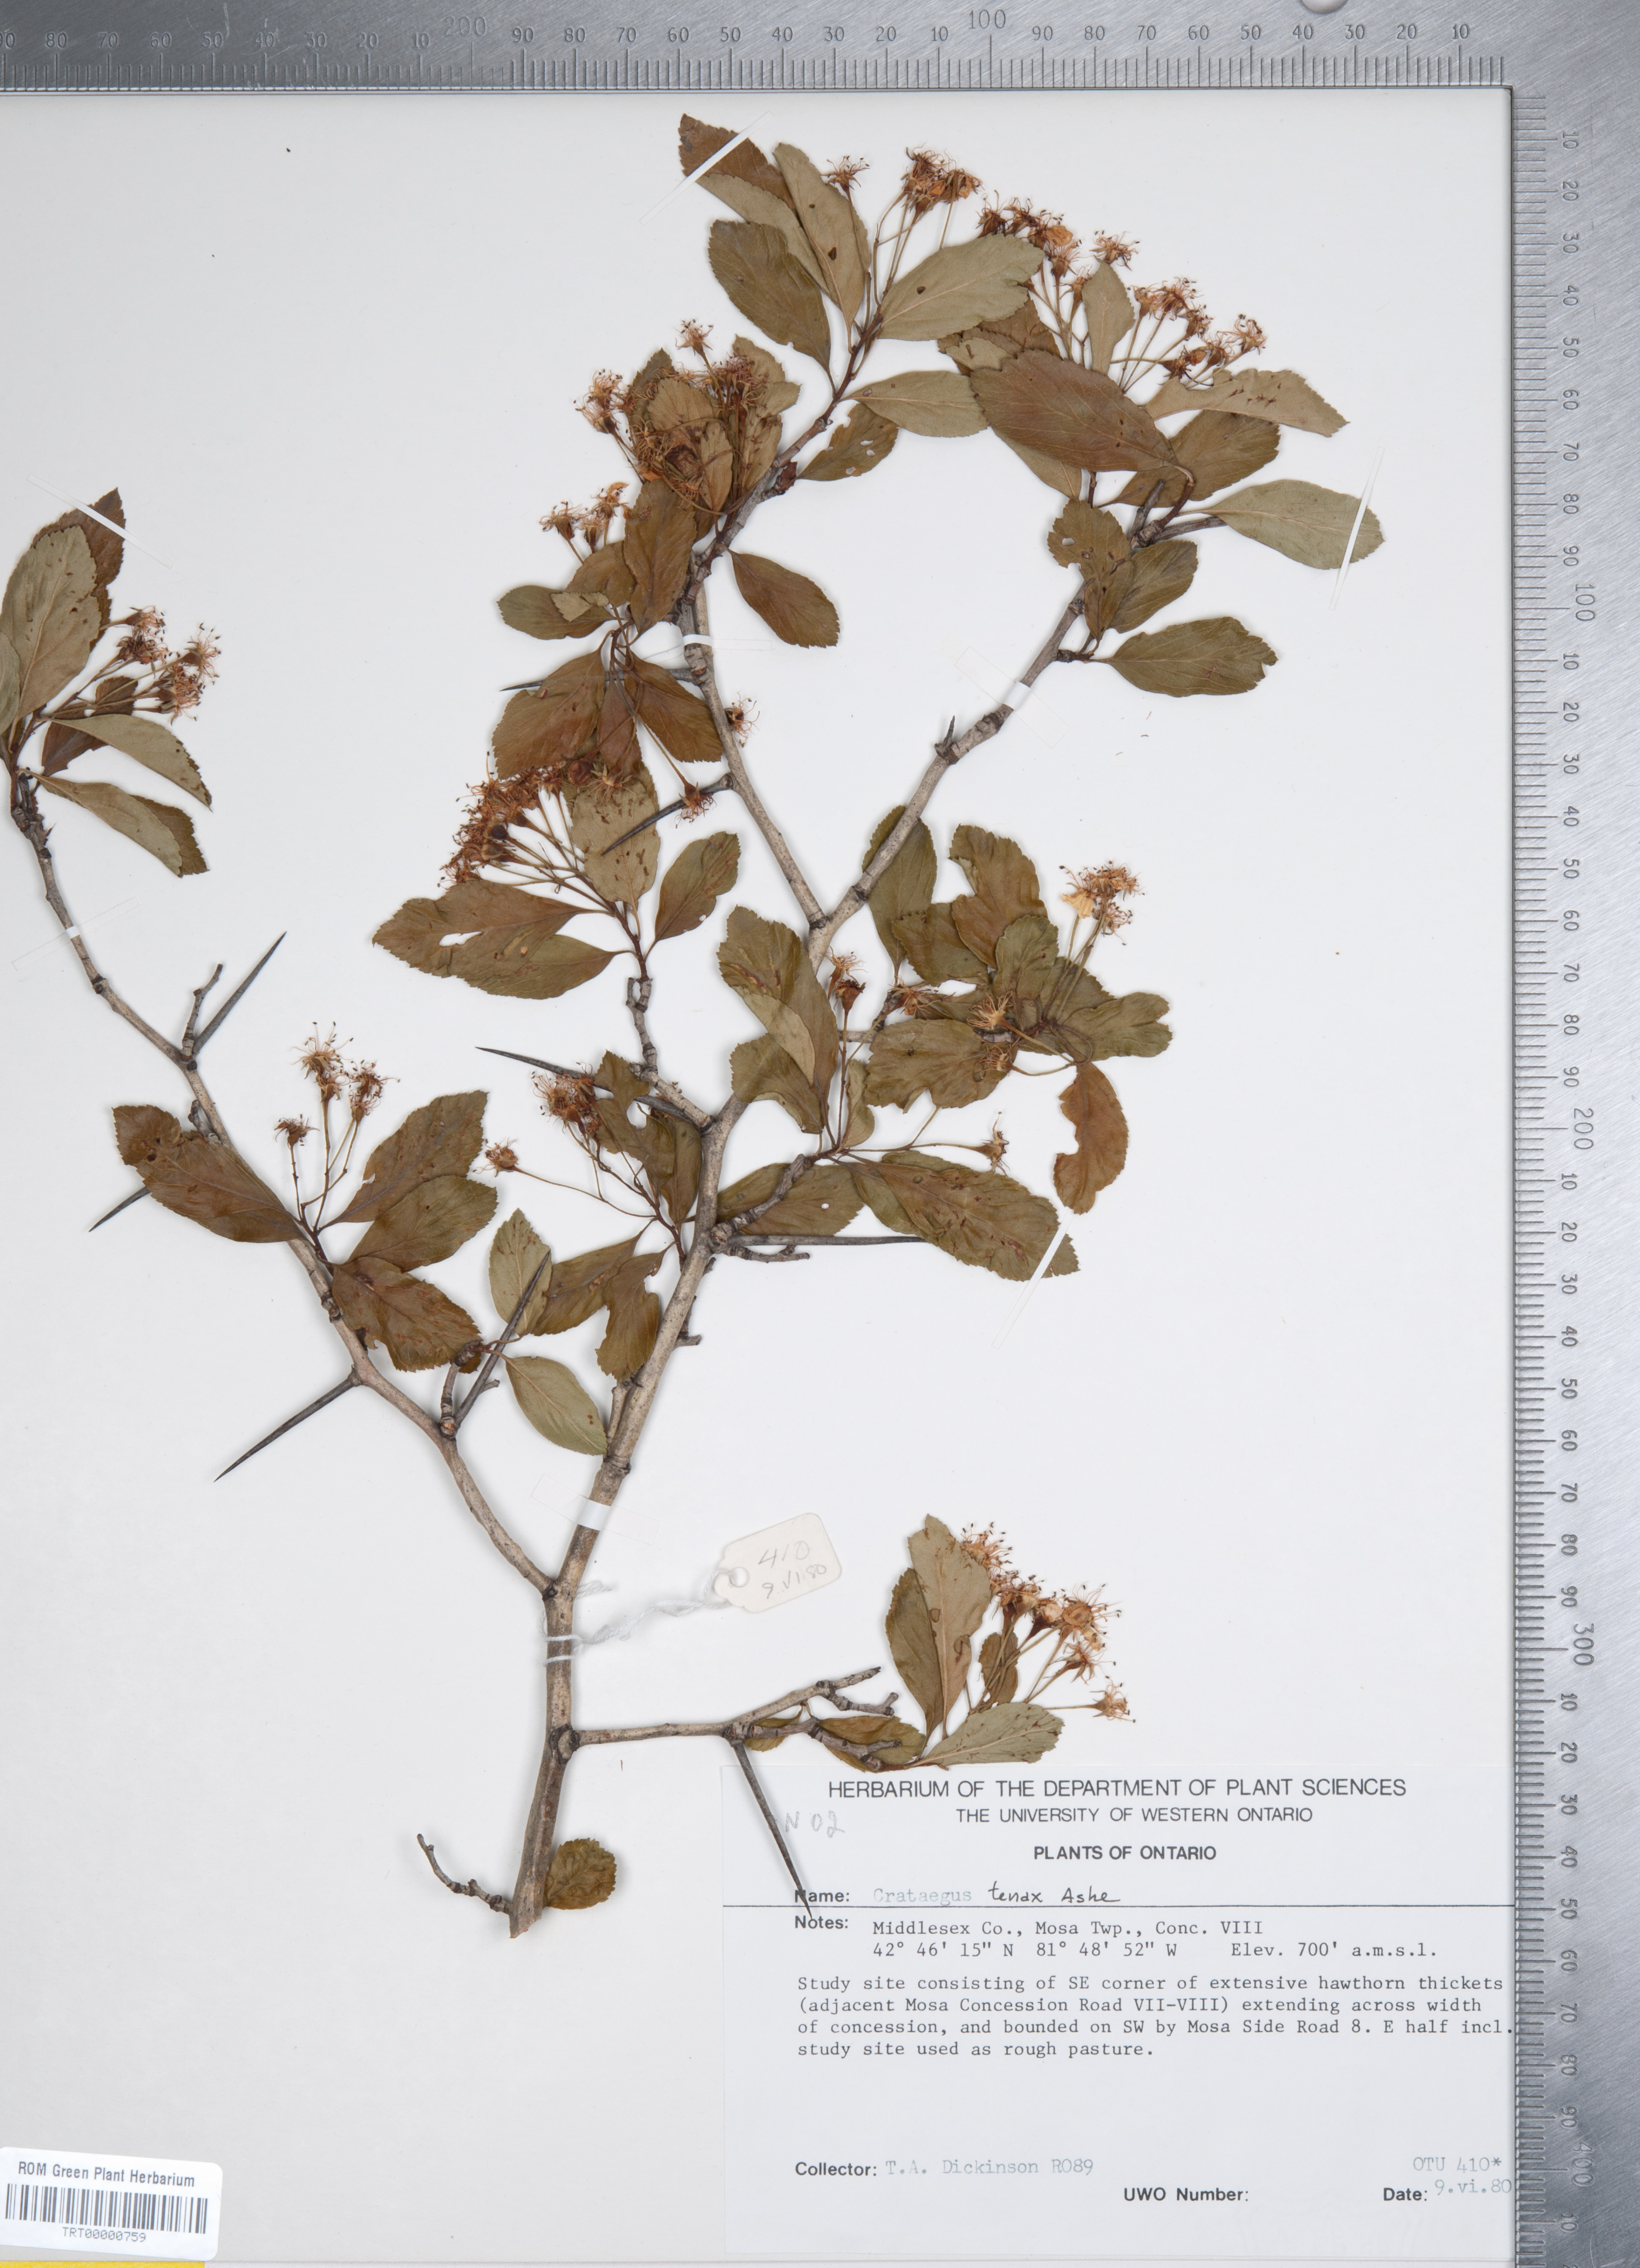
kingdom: Plantae
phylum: Tracheophyta
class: Magnoliopsida
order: Rosales
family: Rosaceae
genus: Crataegus
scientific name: Crataegus crus-galli
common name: Cockspurthorn
